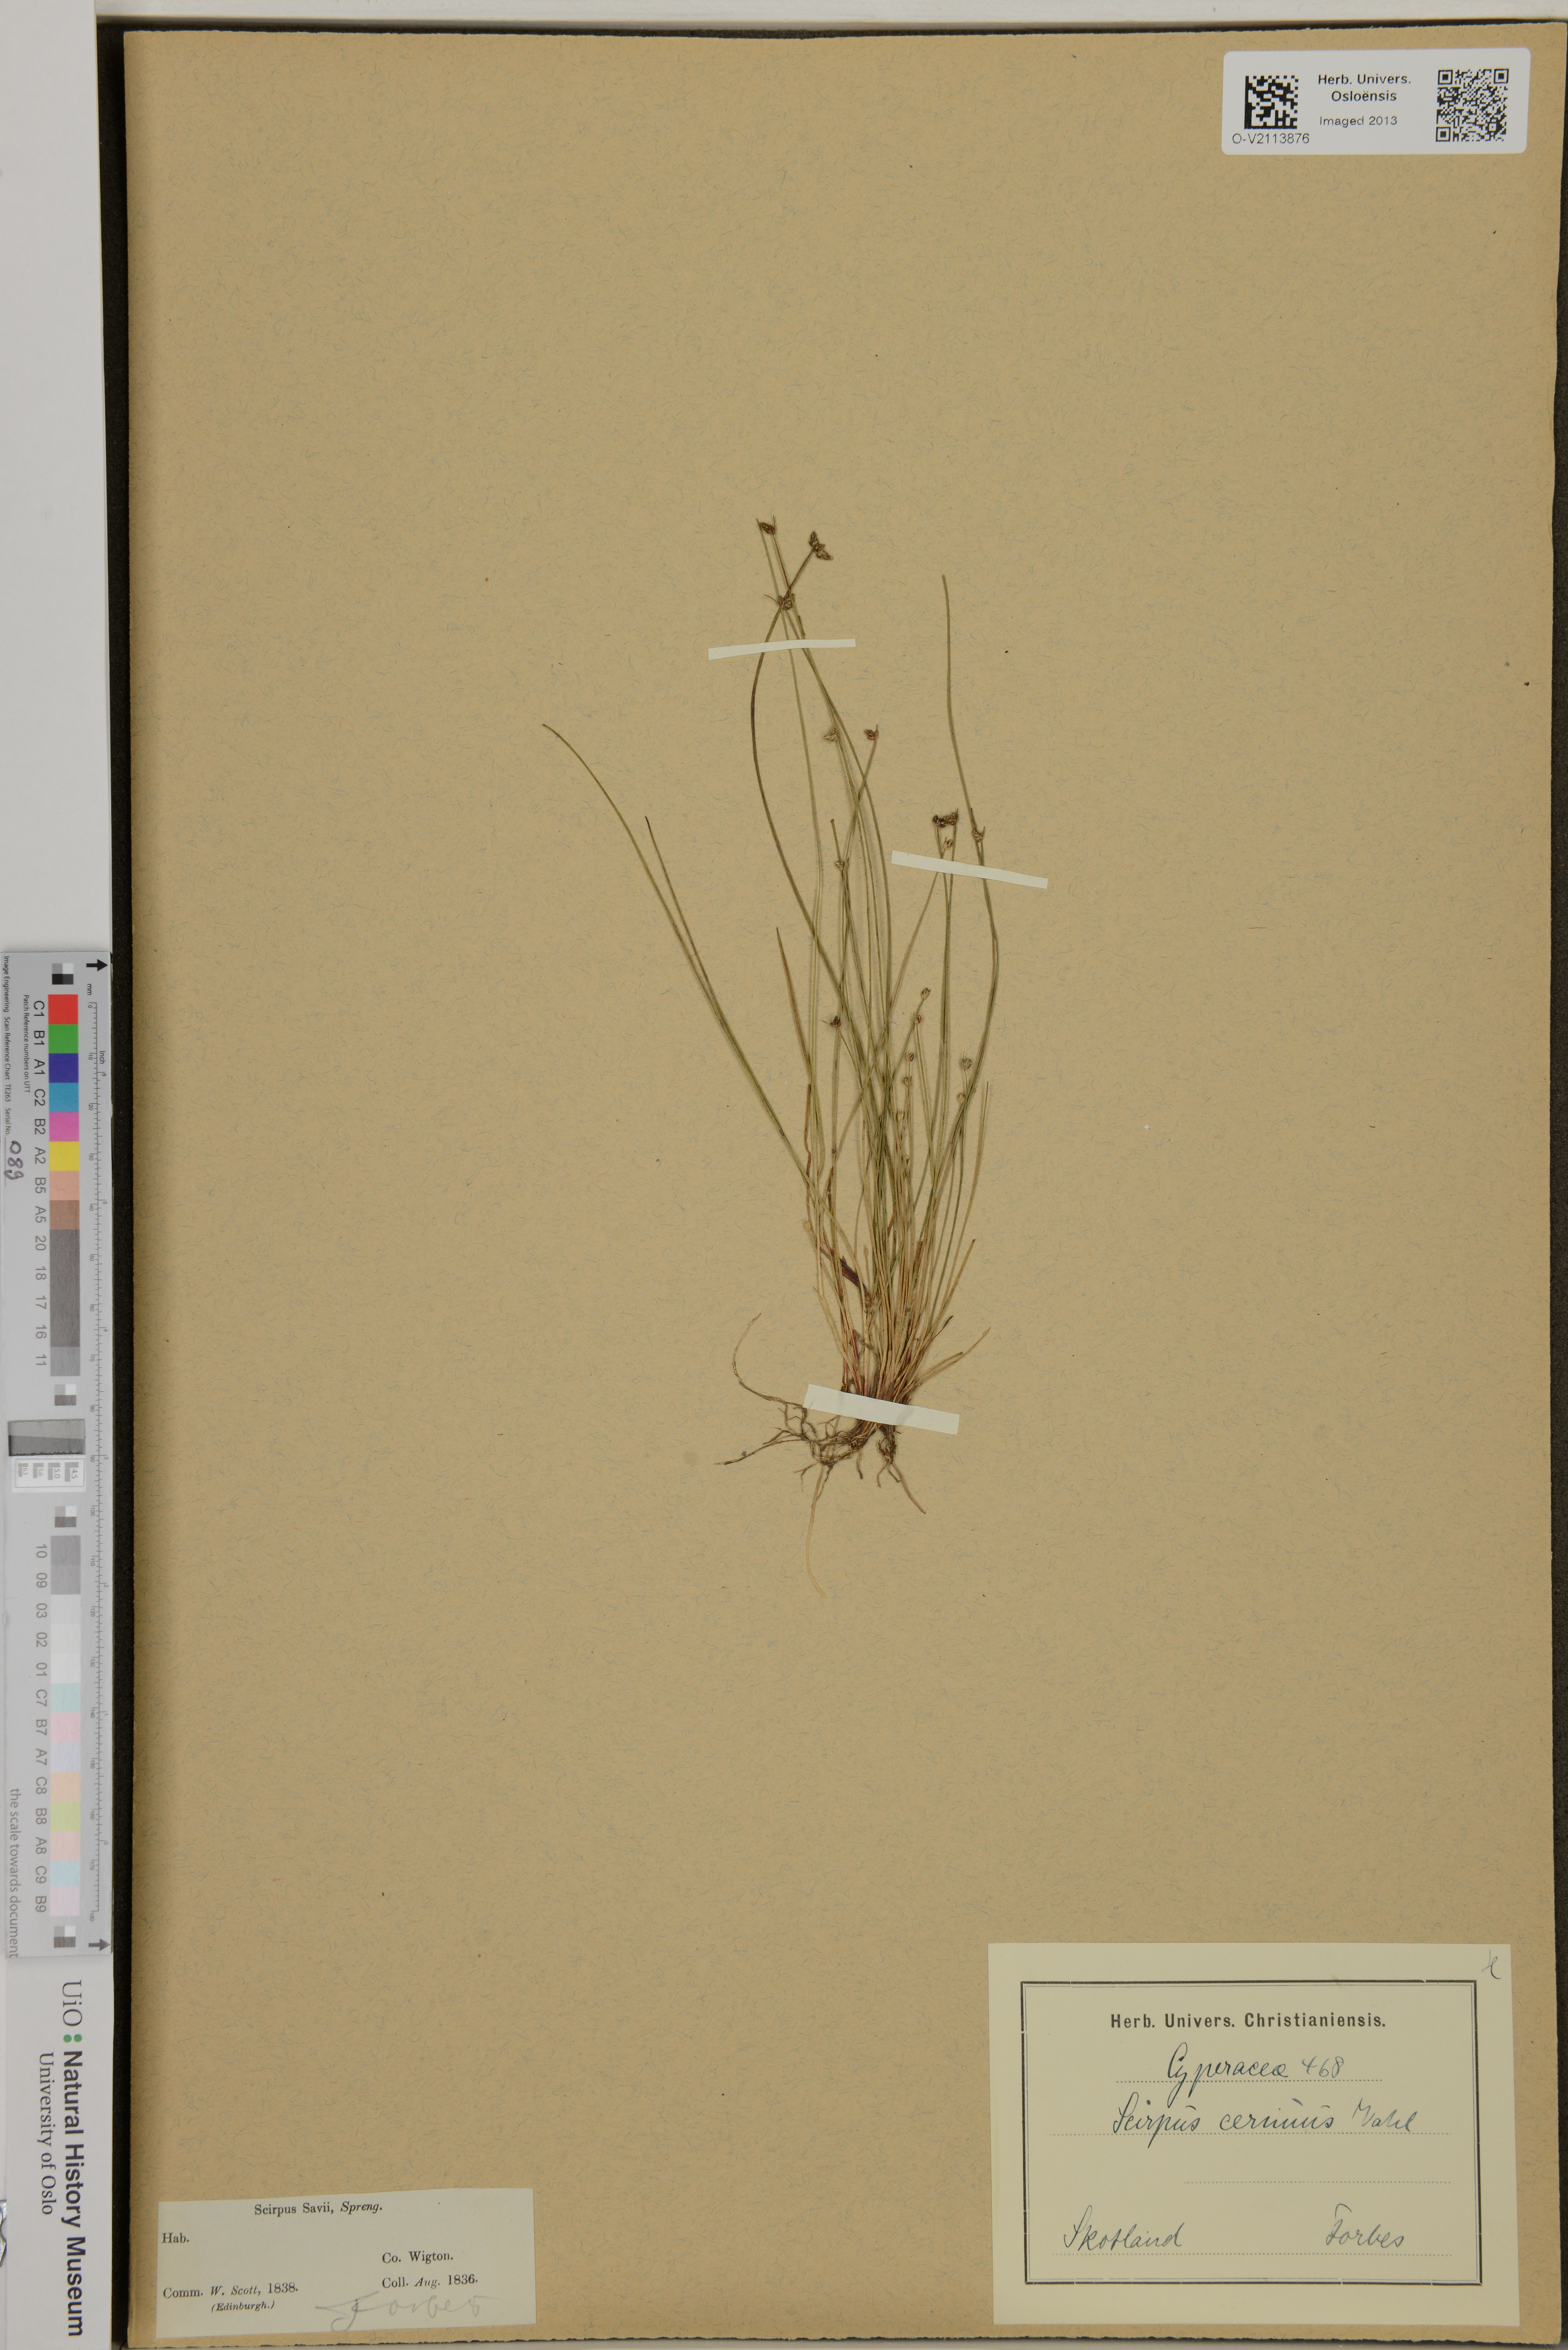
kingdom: Plantae
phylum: Tracheophyta
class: Liliopsida
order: Poales
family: Cyperaceae
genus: Isolepis
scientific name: Isolepis cernua
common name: Slender club-rush
